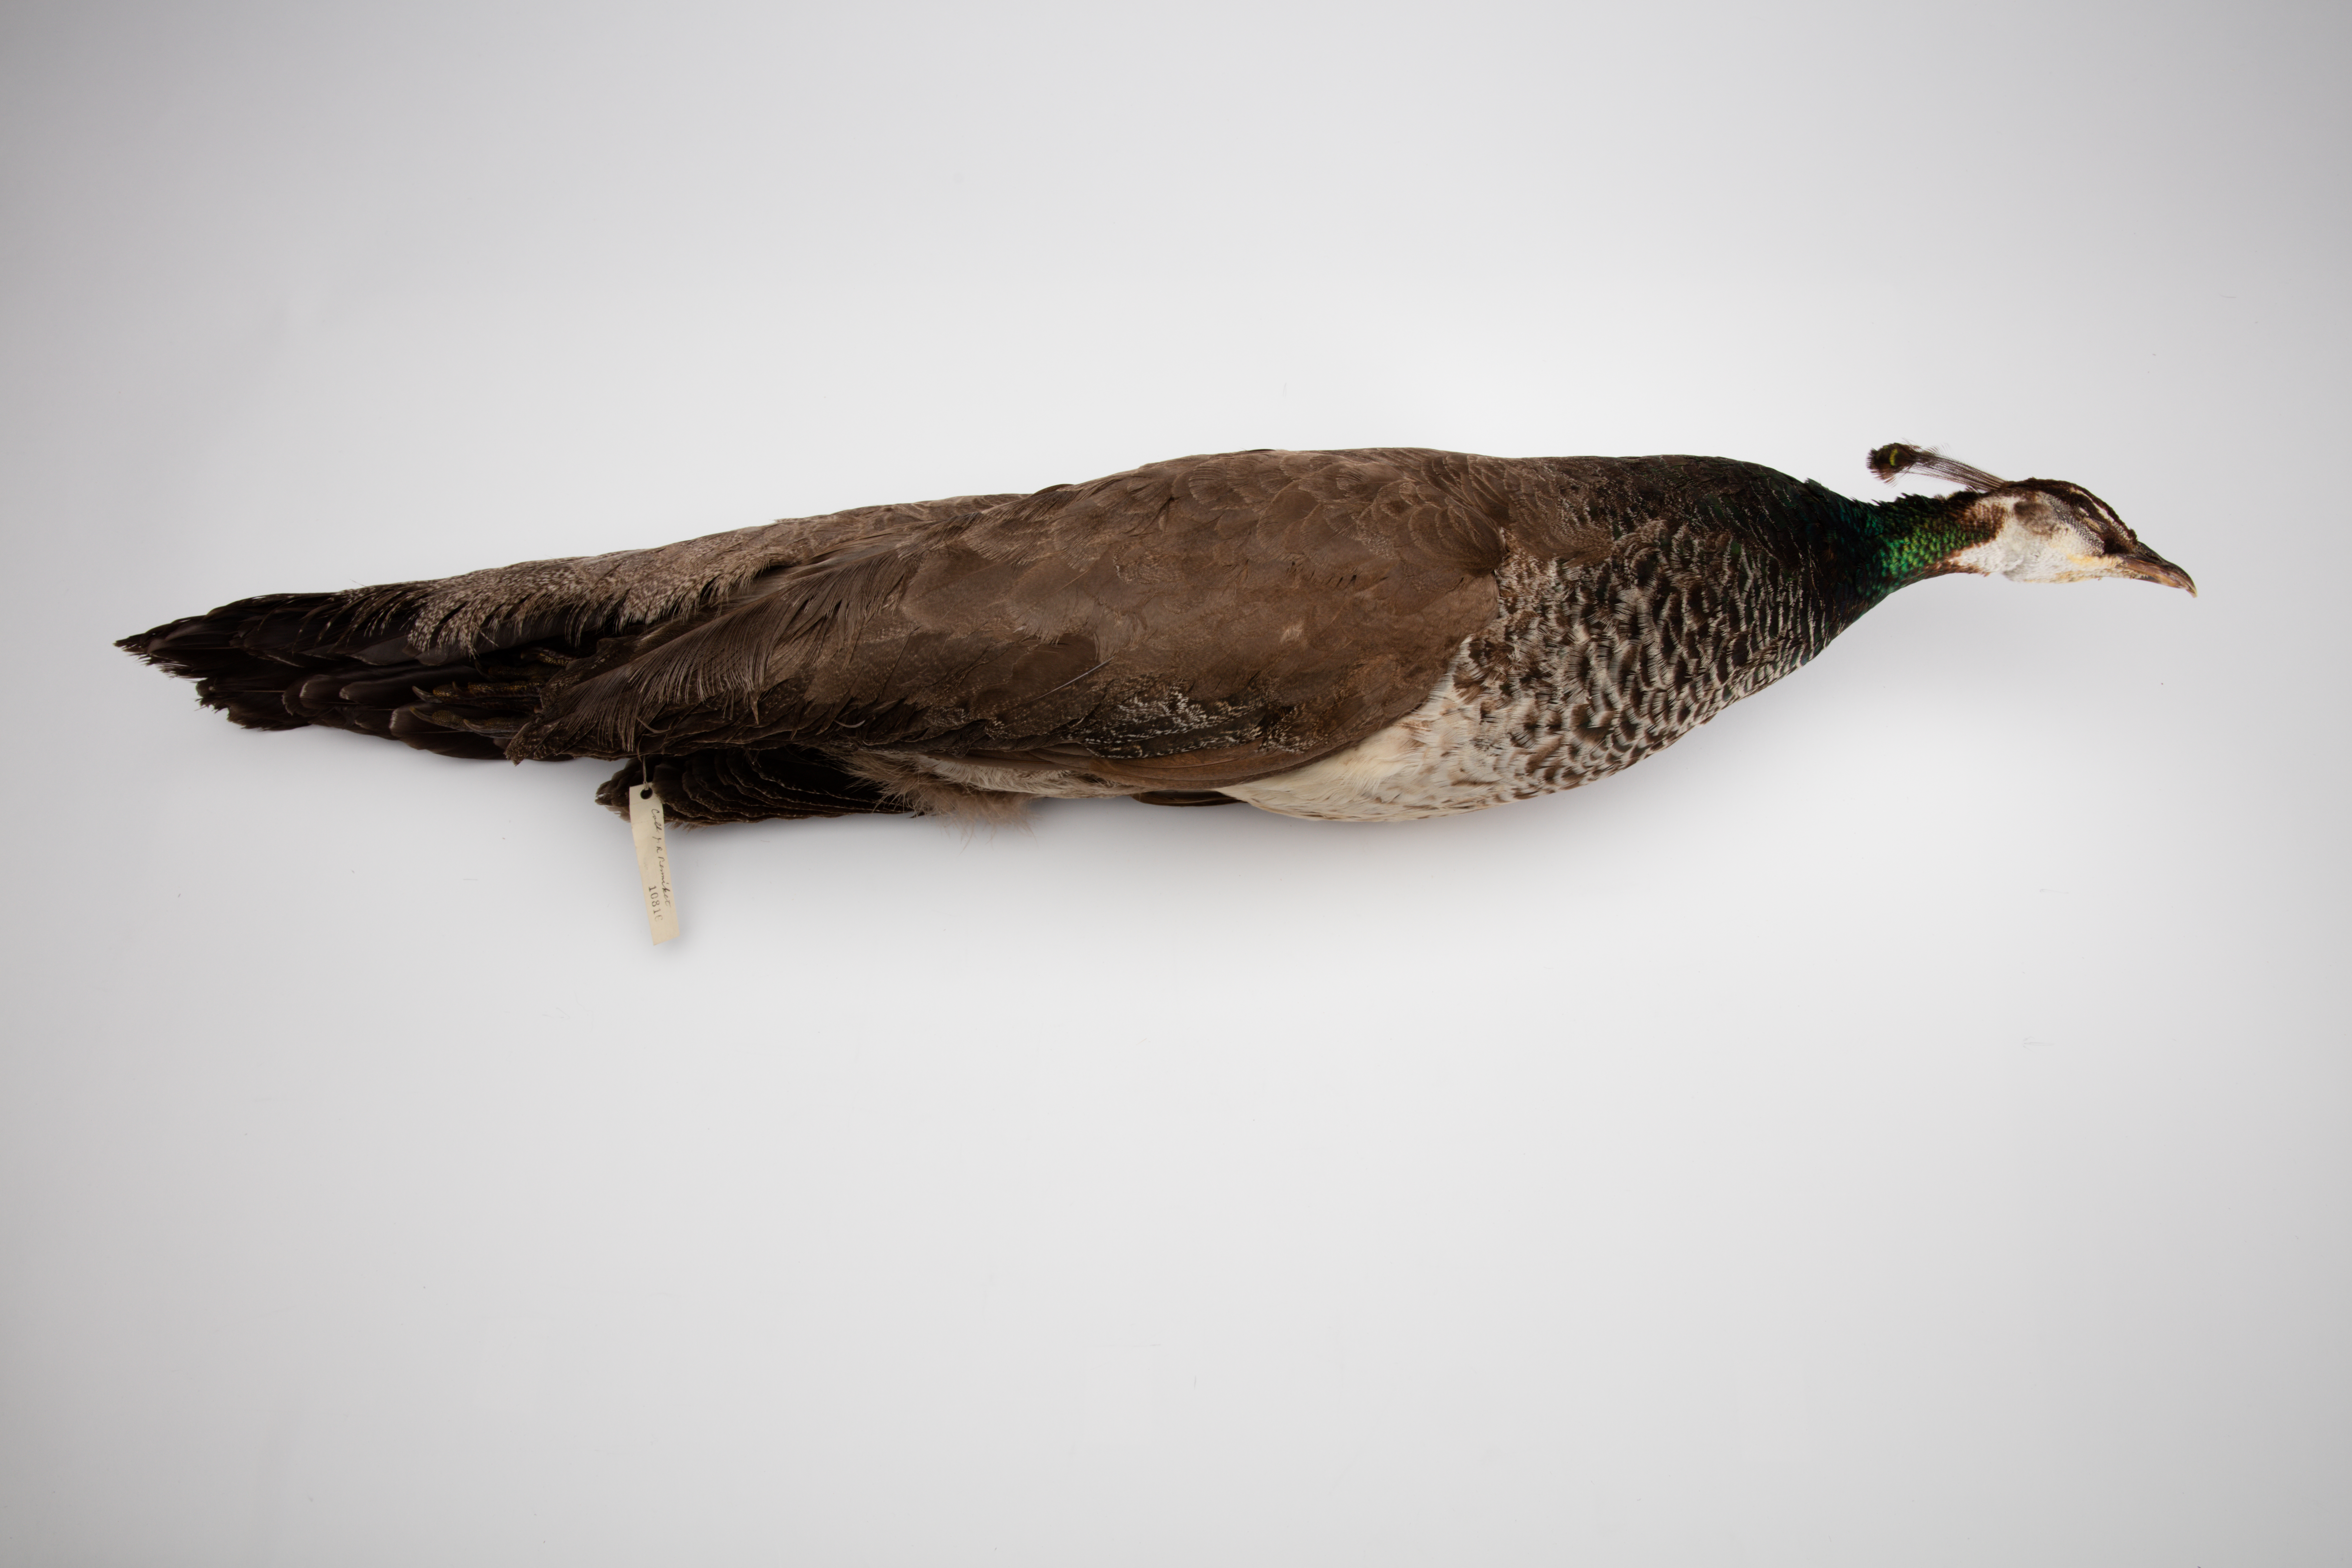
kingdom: Animalia
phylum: Chordata
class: Aves
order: Galliformes
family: Phasianidae
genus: Pavo
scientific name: Pavo cristatus
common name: Indian peafowl
